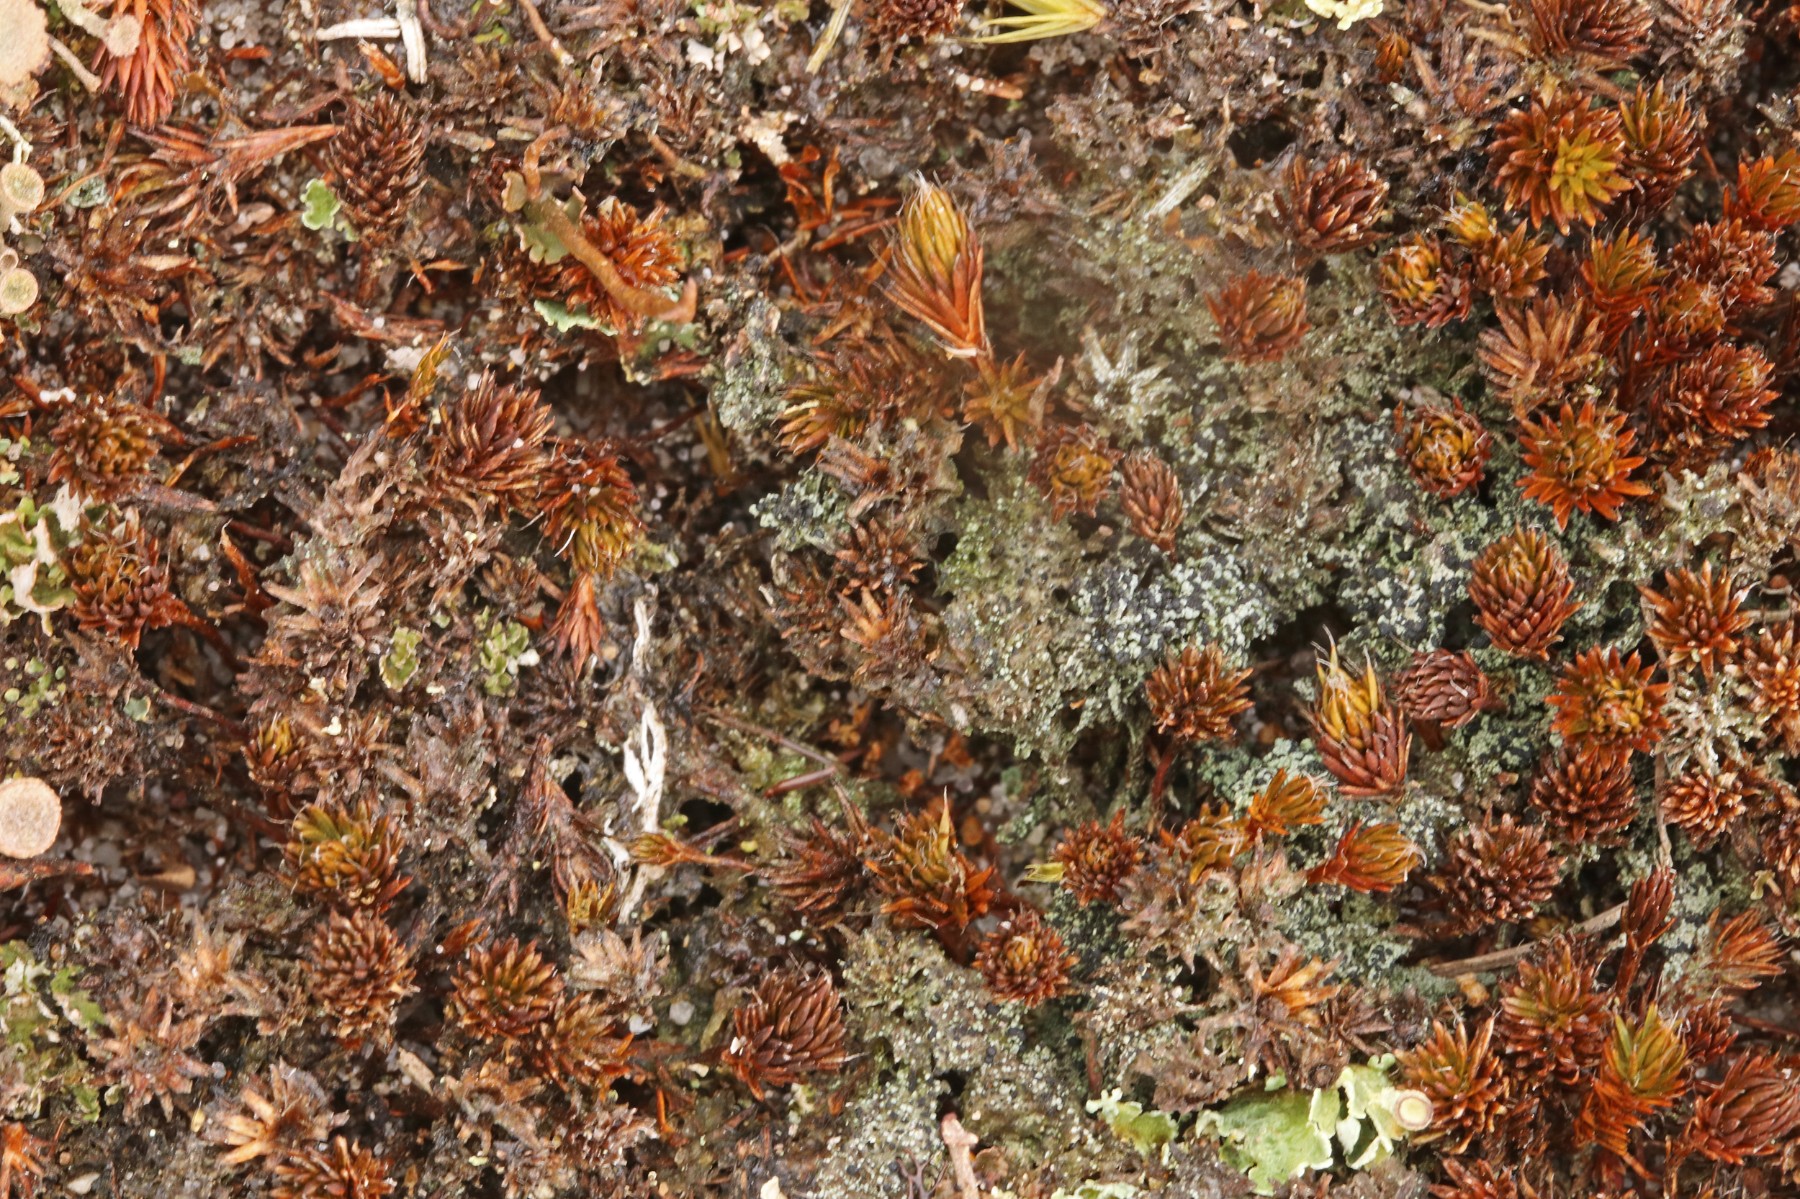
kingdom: Fungi
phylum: Ascomycota
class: Lecanoromycetes
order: Lecanorales
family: Byssolomataceae
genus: Micarea
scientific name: Micarea lignaria
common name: tørve-knaplav
